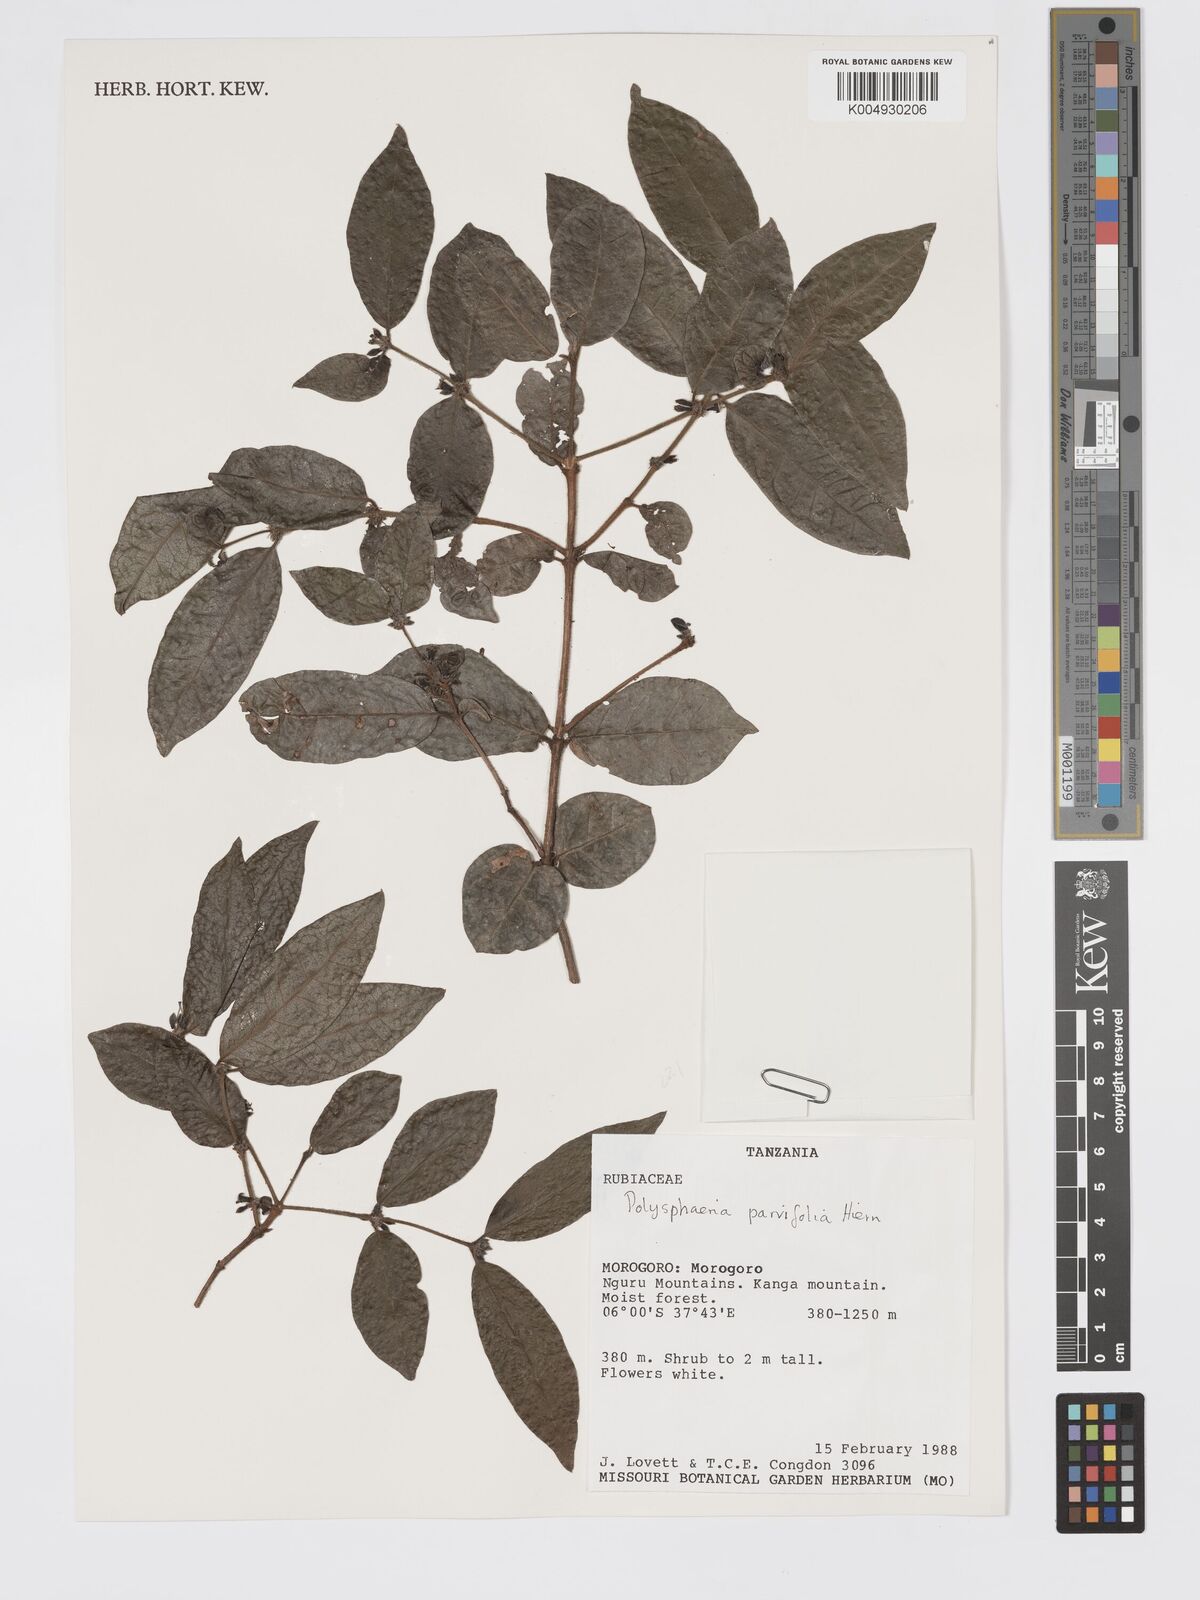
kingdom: Plantae
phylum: Tracheophyta
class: Magnoliopsida
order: Gentianales
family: Rubiaceae
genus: Polysphaeria
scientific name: Polysphaeria parvifolia
